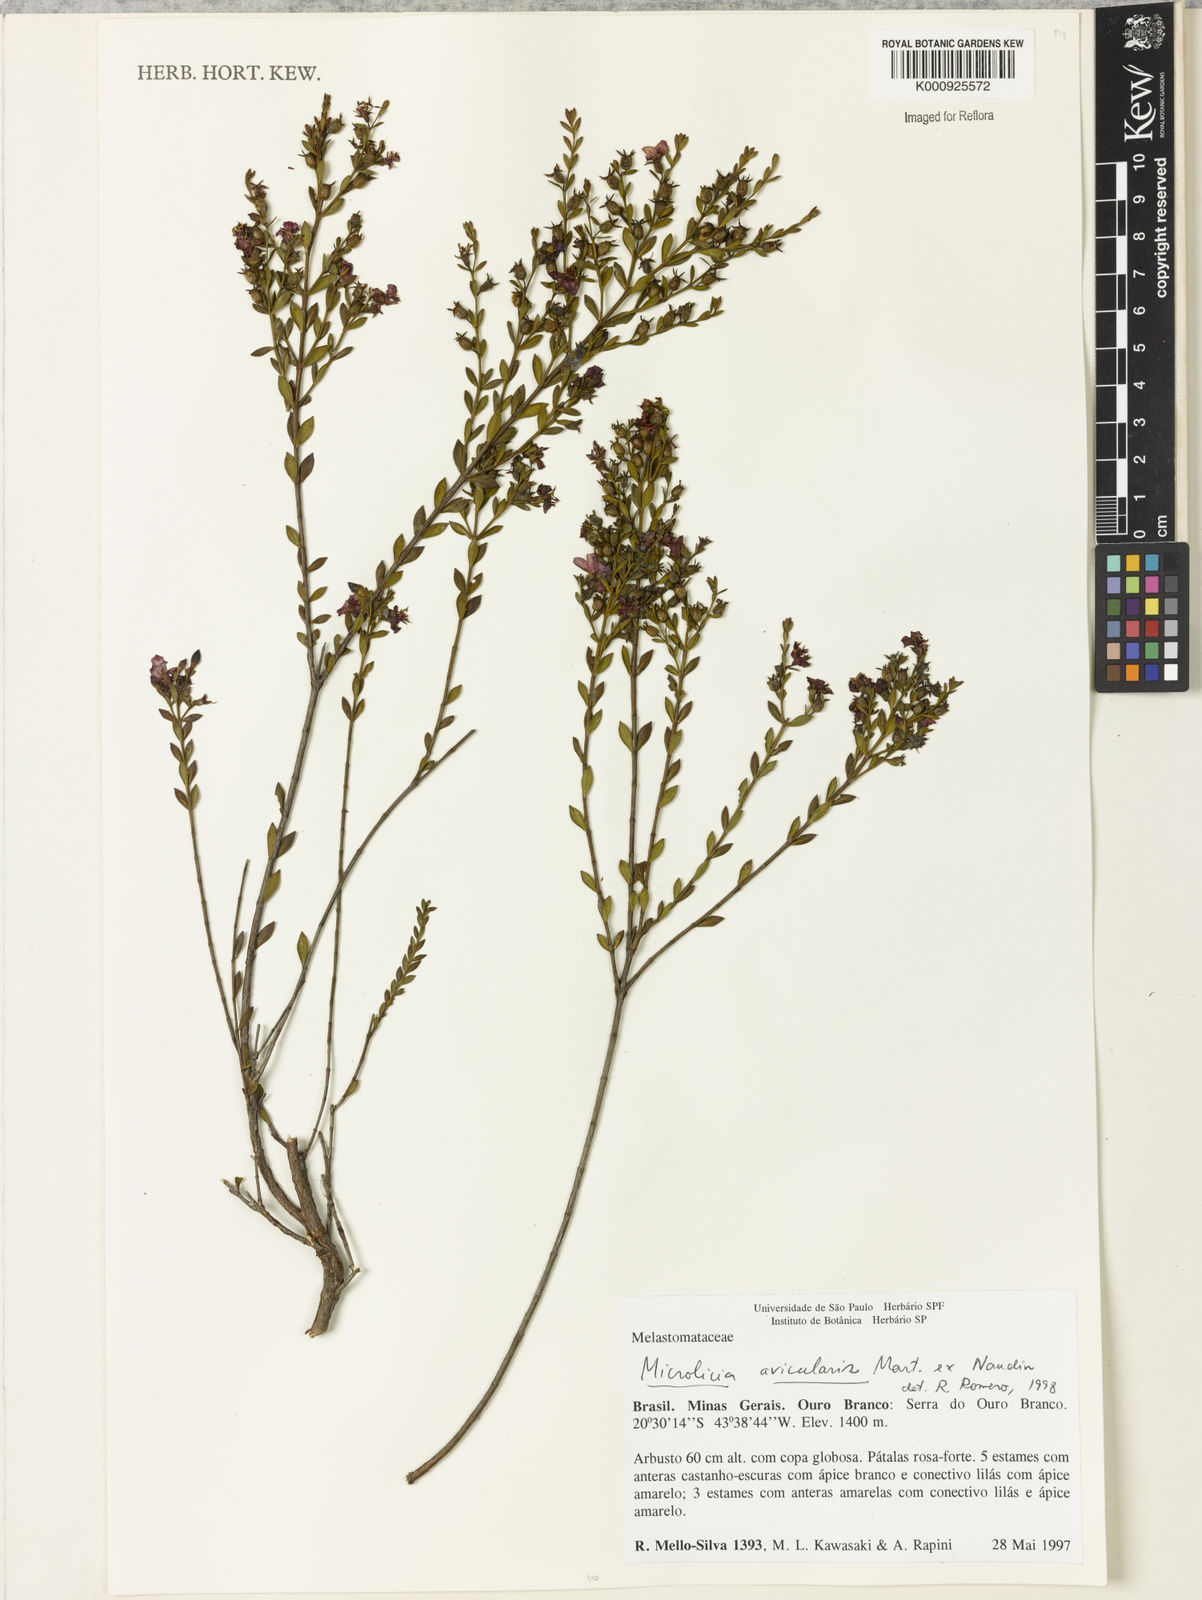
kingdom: Plantae
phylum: Tracheophyta
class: Magnoliopsida
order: Myrtales
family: Melastomataceae
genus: Microlicia
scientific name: Microlicia avicularis
